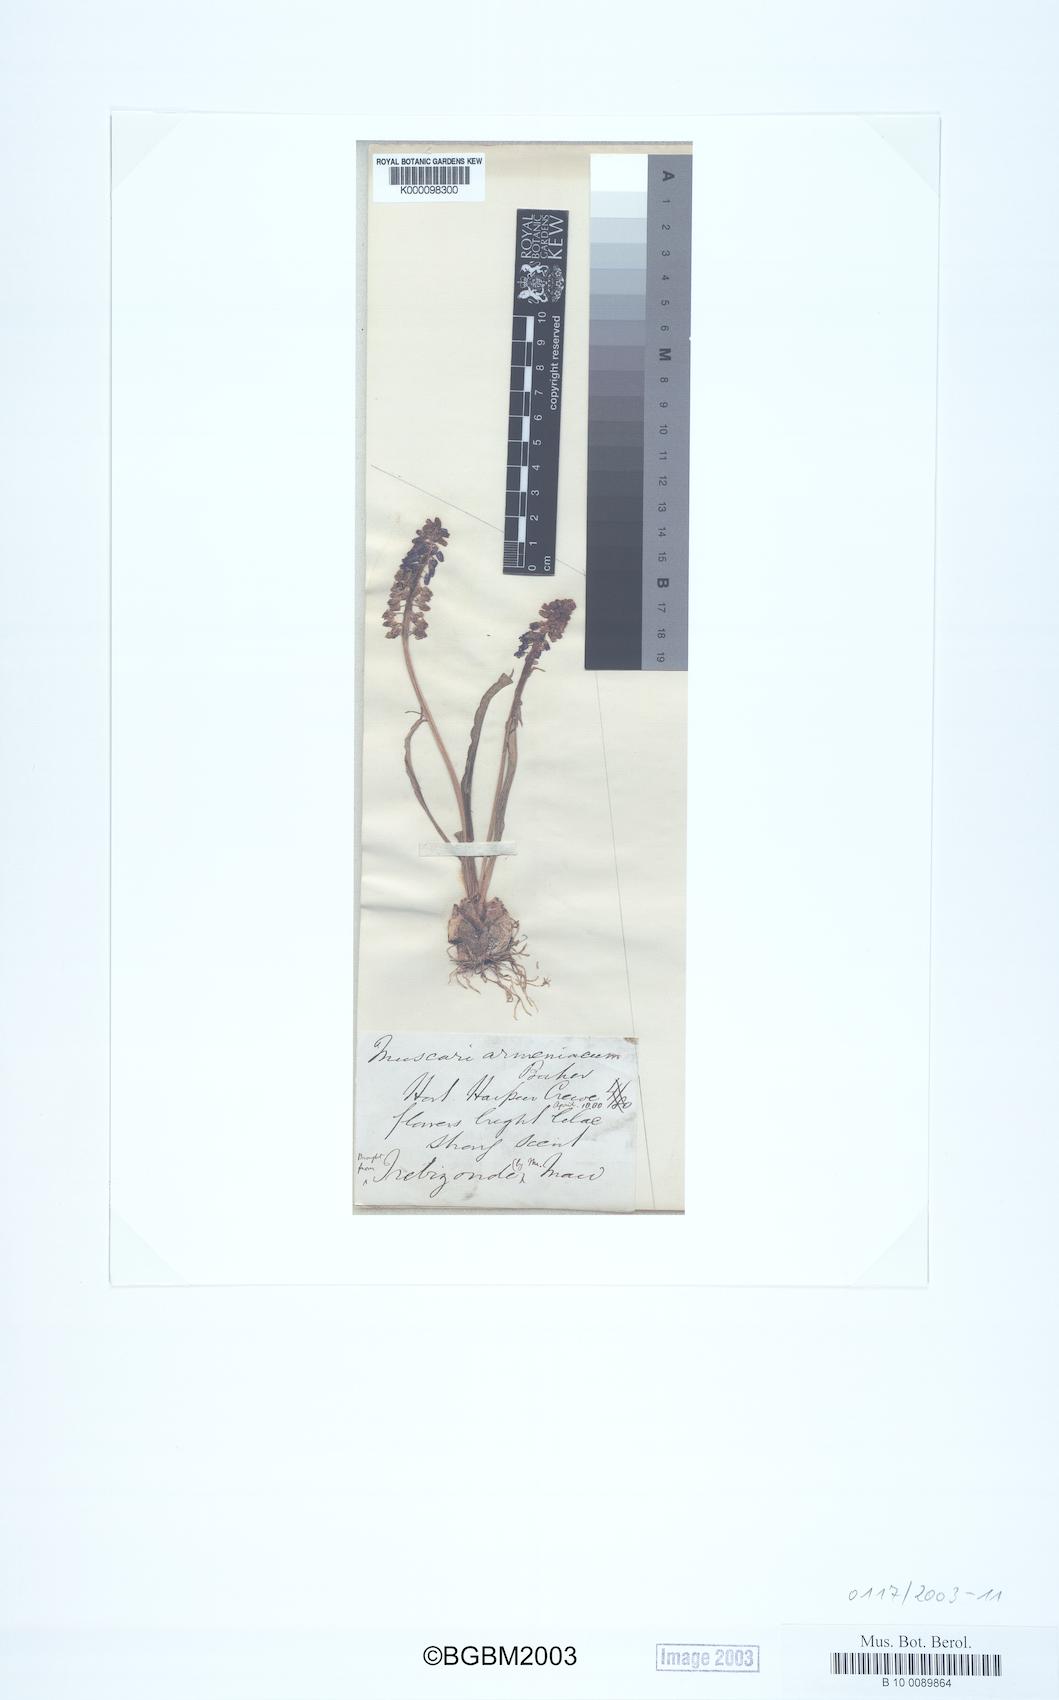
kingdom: Plantae
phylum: Tracheophyta
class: Liliopsida
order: Asparagales
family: Asparagaceae
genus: Muscari
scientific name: Muscari armeniacum
